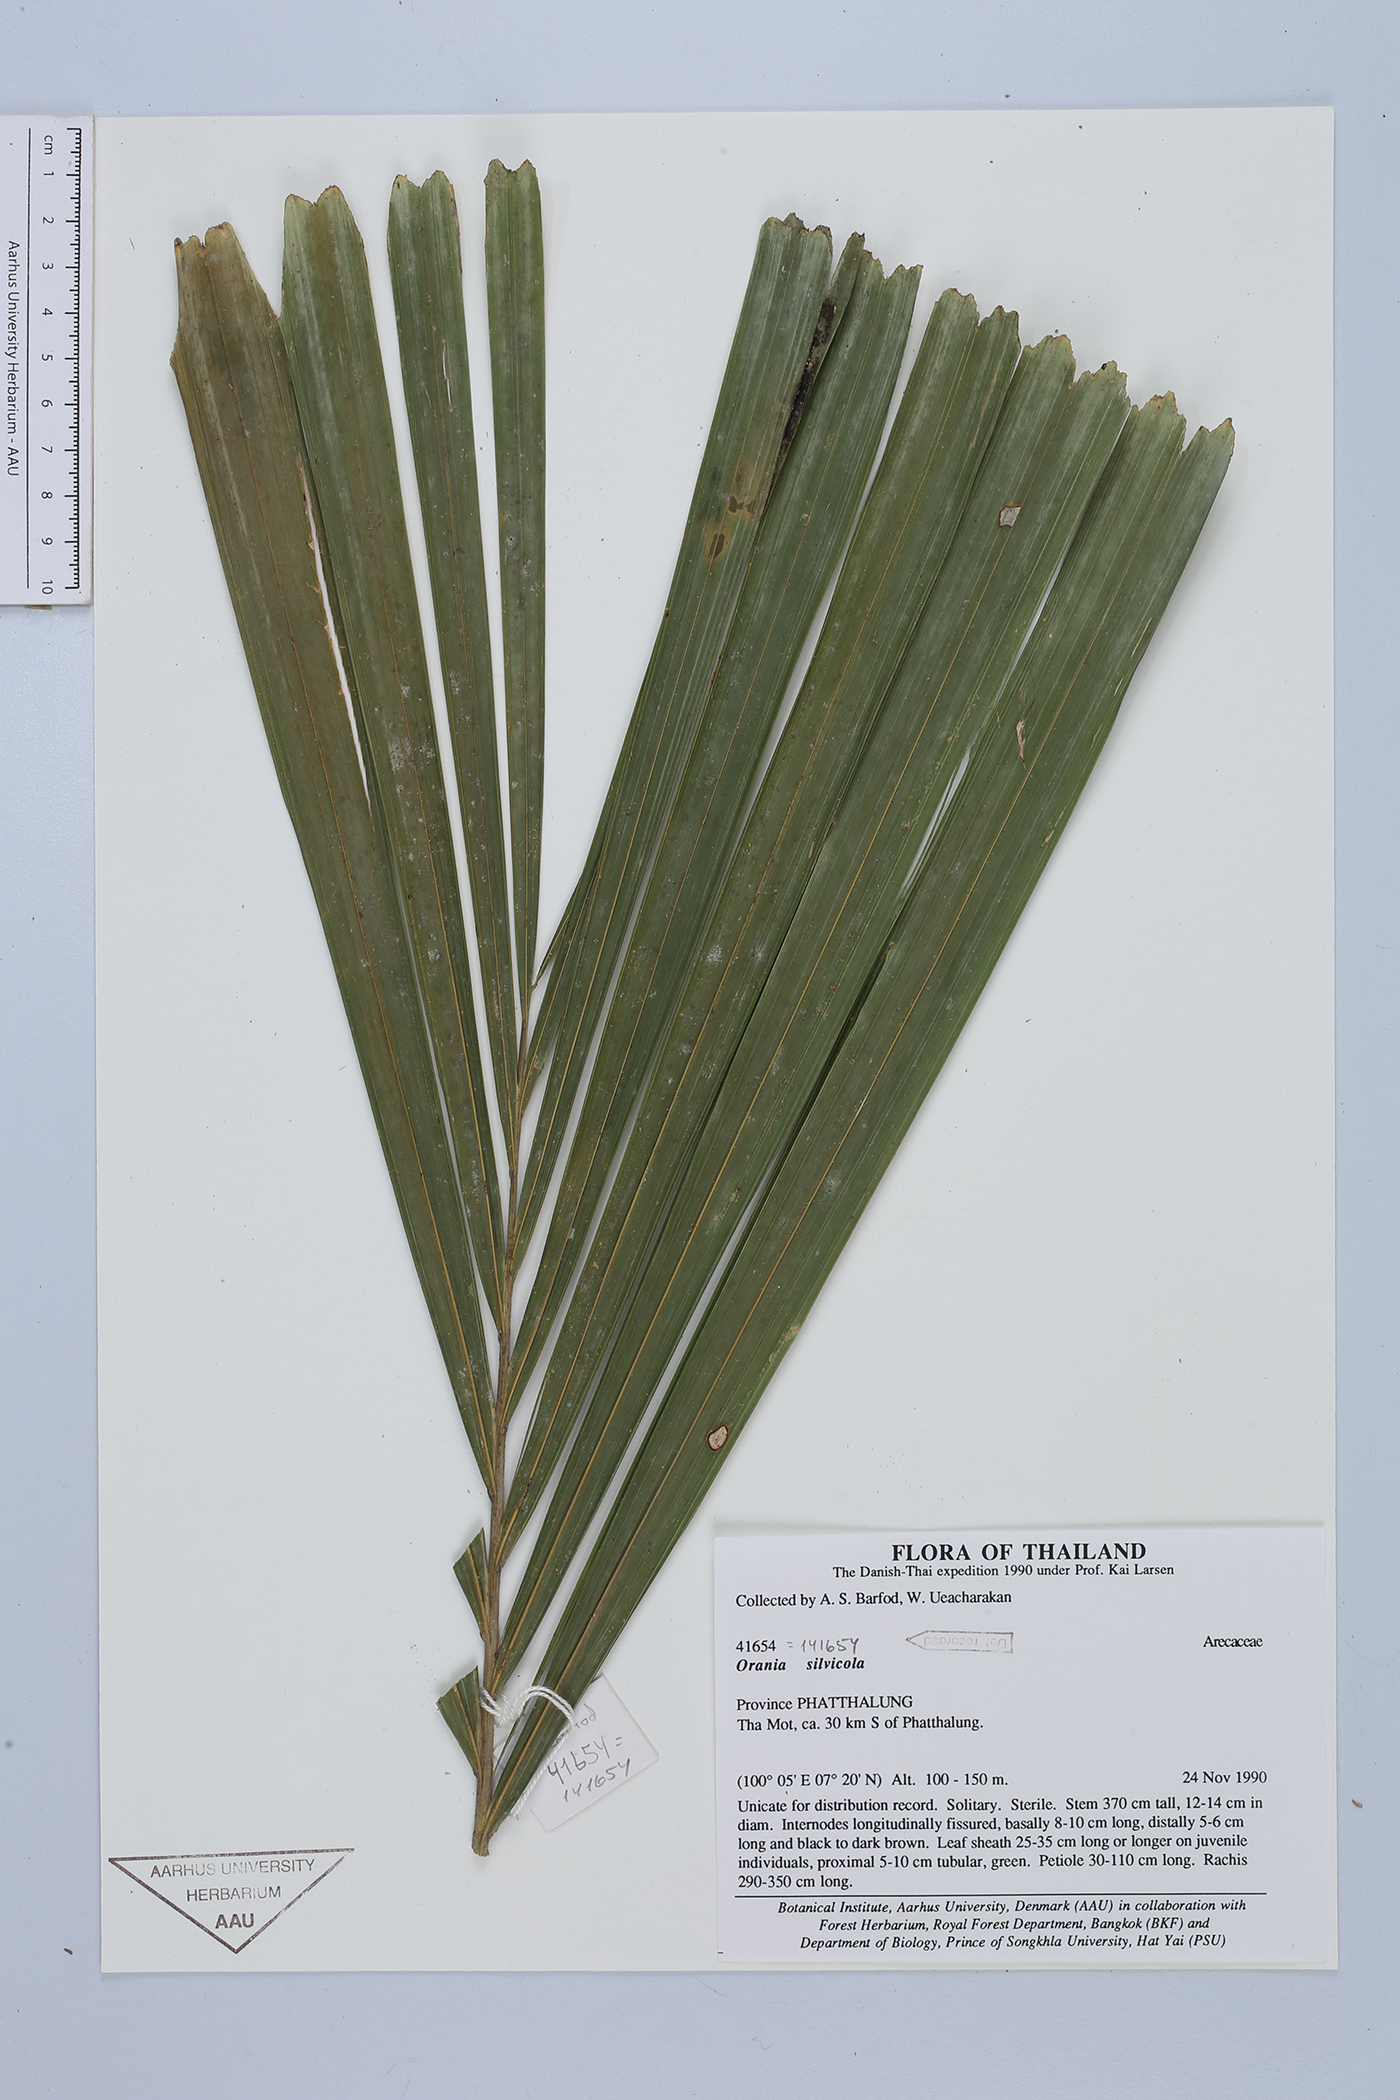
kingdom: Plantae
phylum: Tracheophyta
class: Liliopsida
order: Arecales
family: Arecaceae
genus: Orania
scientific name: Orania sylvicola
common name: Forest palm
